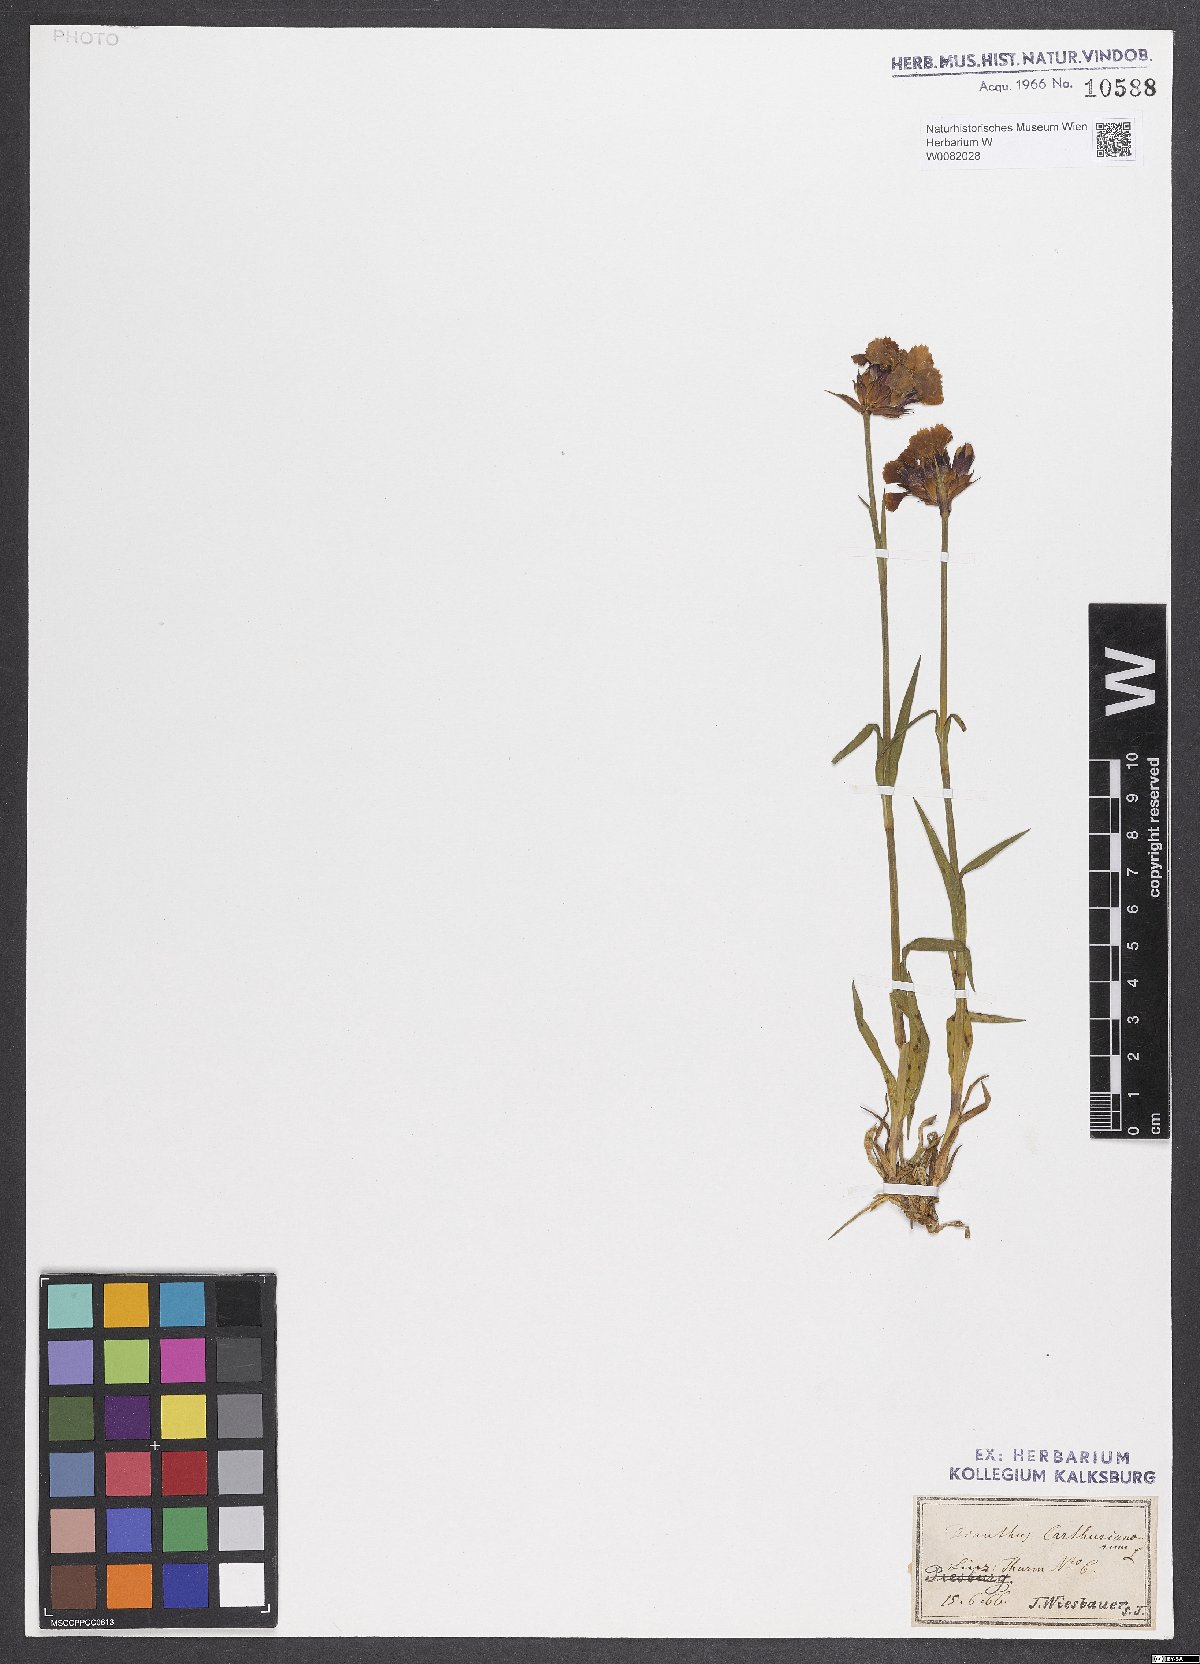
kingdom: Plantae
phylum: Tracheophyta
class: Magnoliopsida
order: Caryophyllales
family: Caryophyllaceae
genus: Dianthus
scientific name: Dianthus carthusianorum
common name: Carthusian pink
